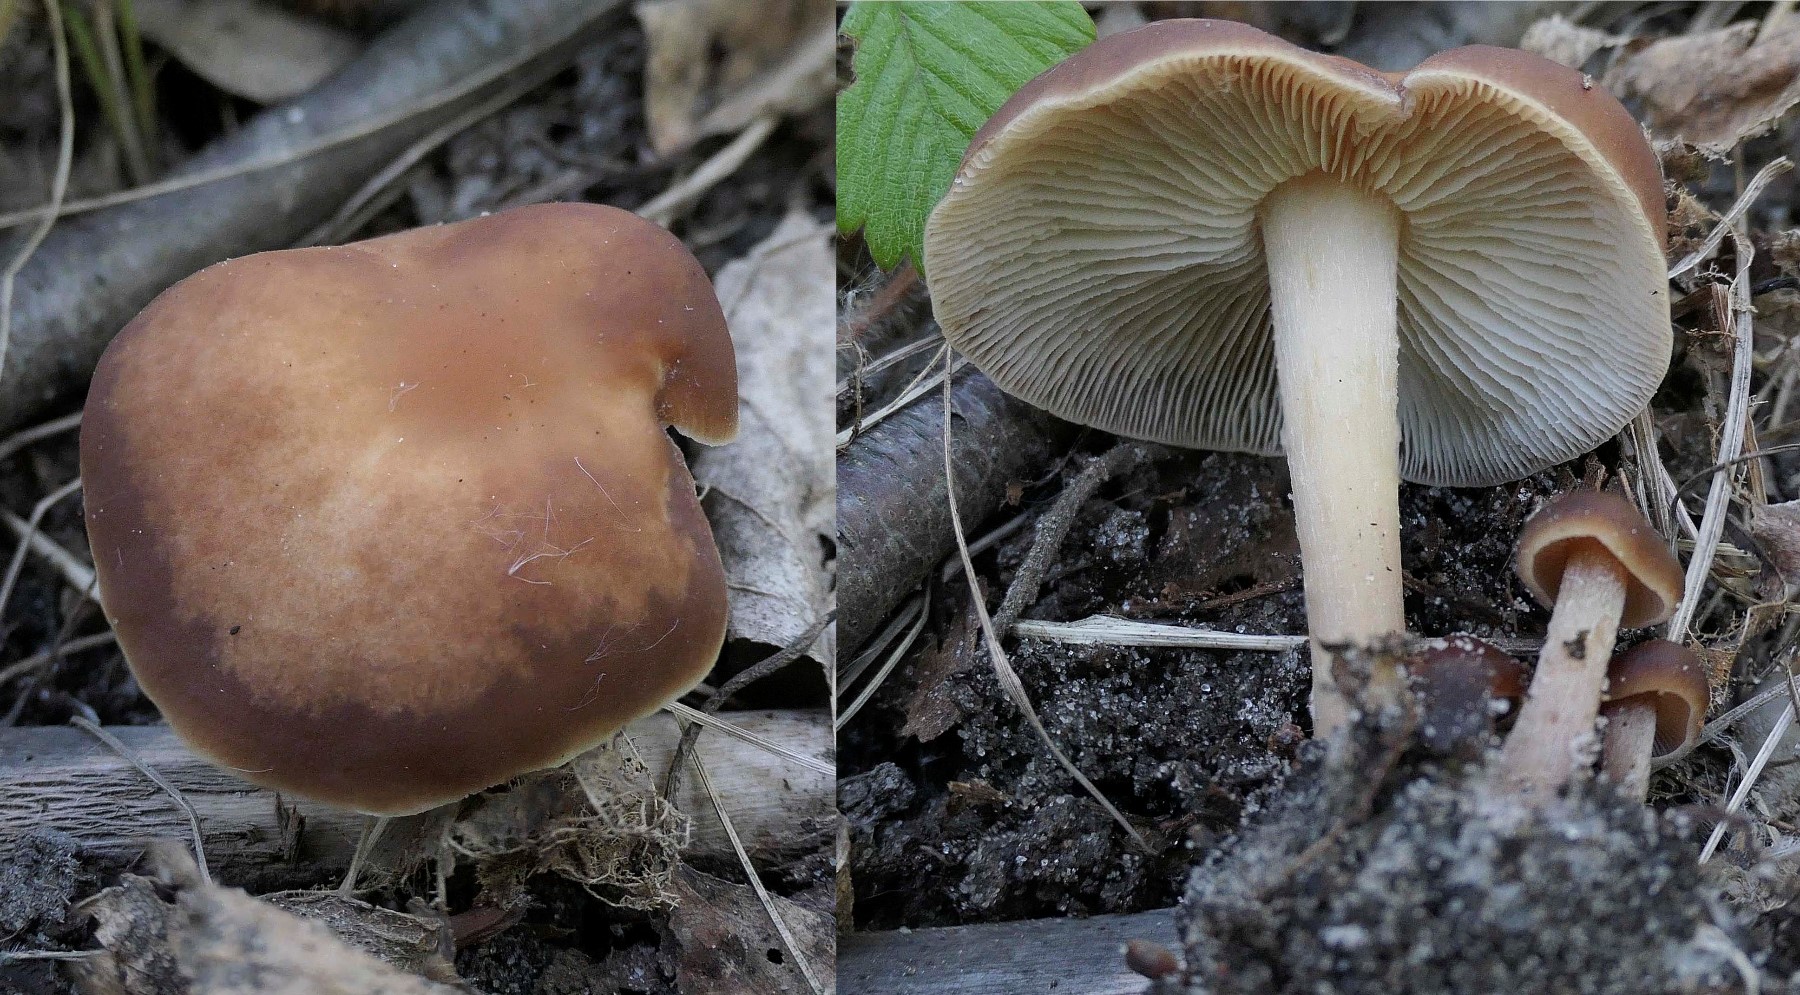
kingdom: Fungi
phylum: Basidiomycota
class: Agaricomycetes
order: Agaricales
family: Omphalotaceae
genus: Gymnopus
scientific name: Gymnopus ocior
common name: mørk fladhat
